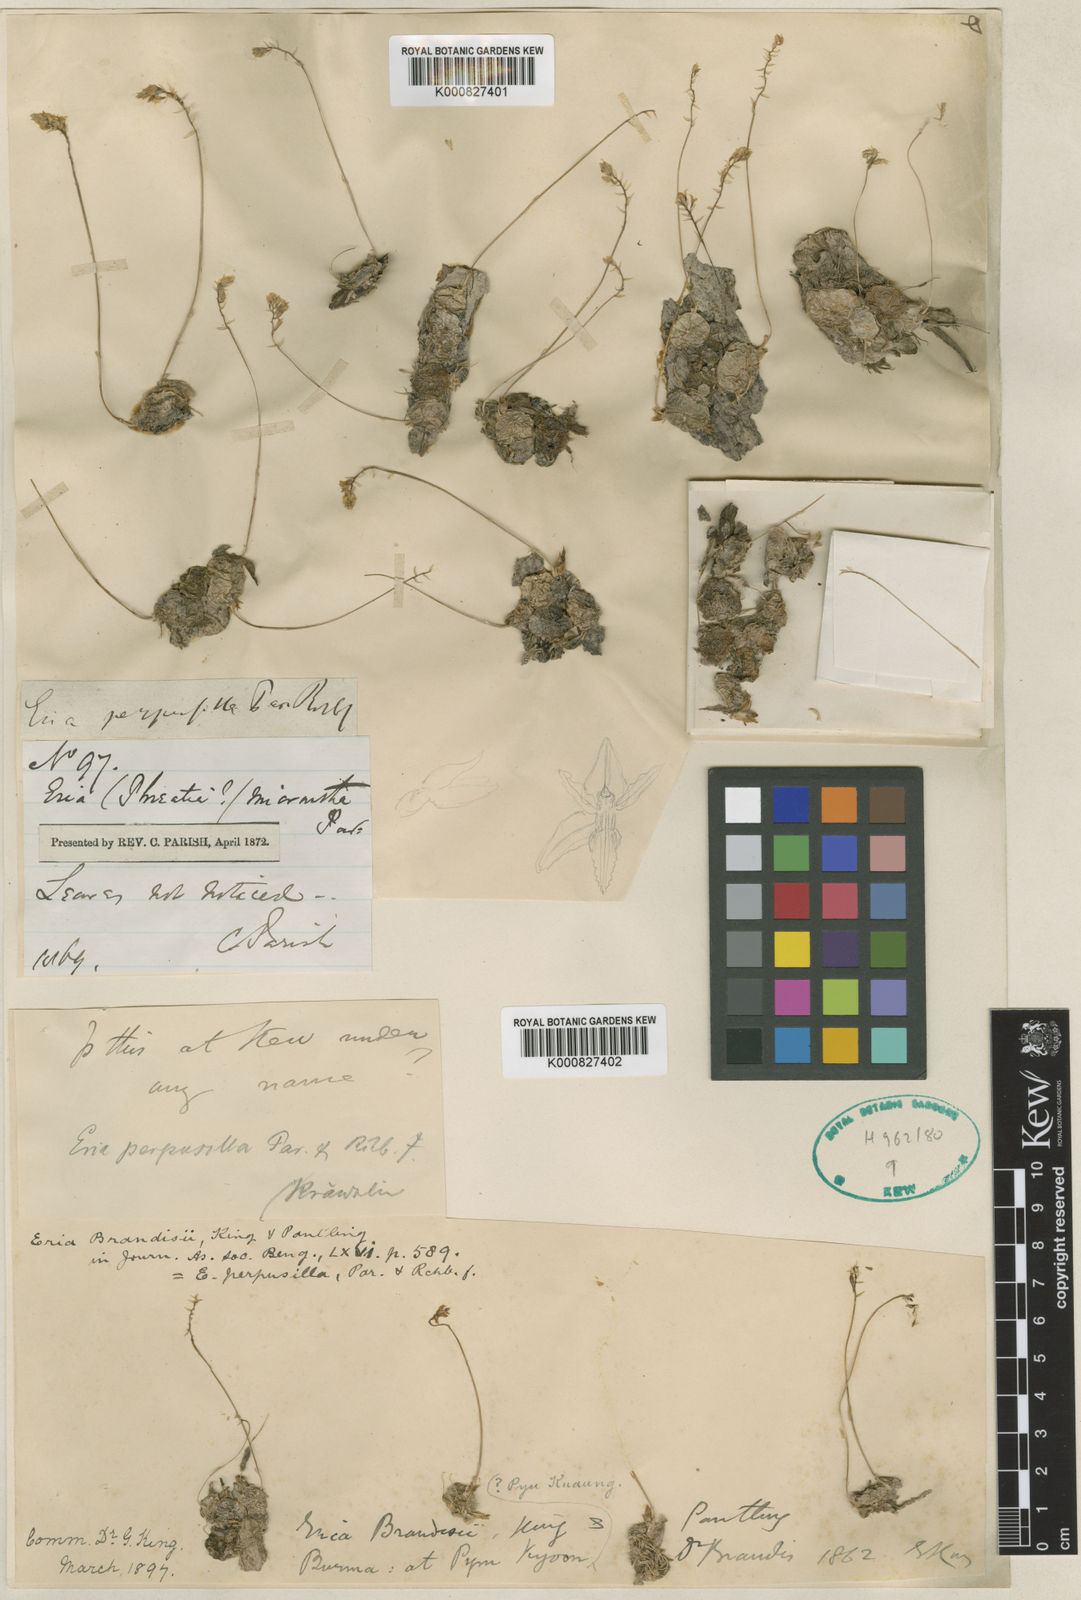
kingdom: Plantae
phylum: Tracheophyta
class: Liliopsida
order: Asparagales
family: Orchidaceae
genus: Thelasis
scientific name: Thelasis perpusilla
